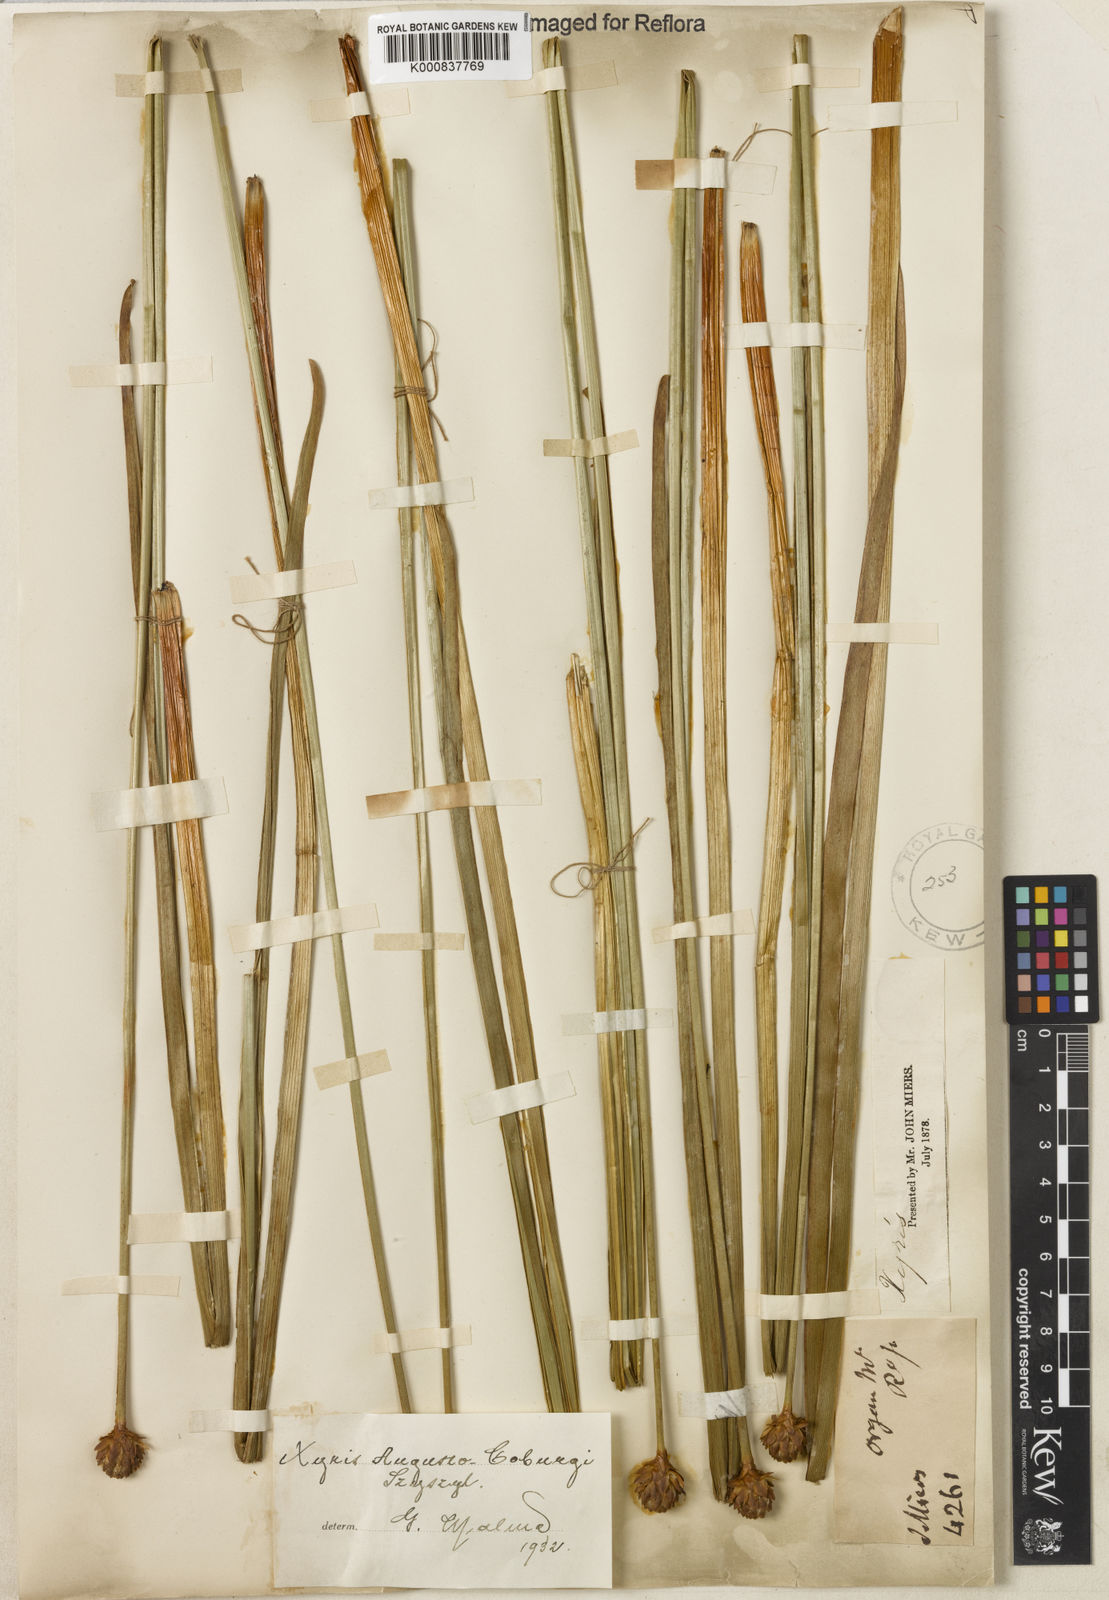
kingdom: Plantae
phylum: Tracheophyta
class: Liliopsida
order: Poales
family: Xyridaceae
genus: Xyris
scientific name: Xyris augusto-coburgii
